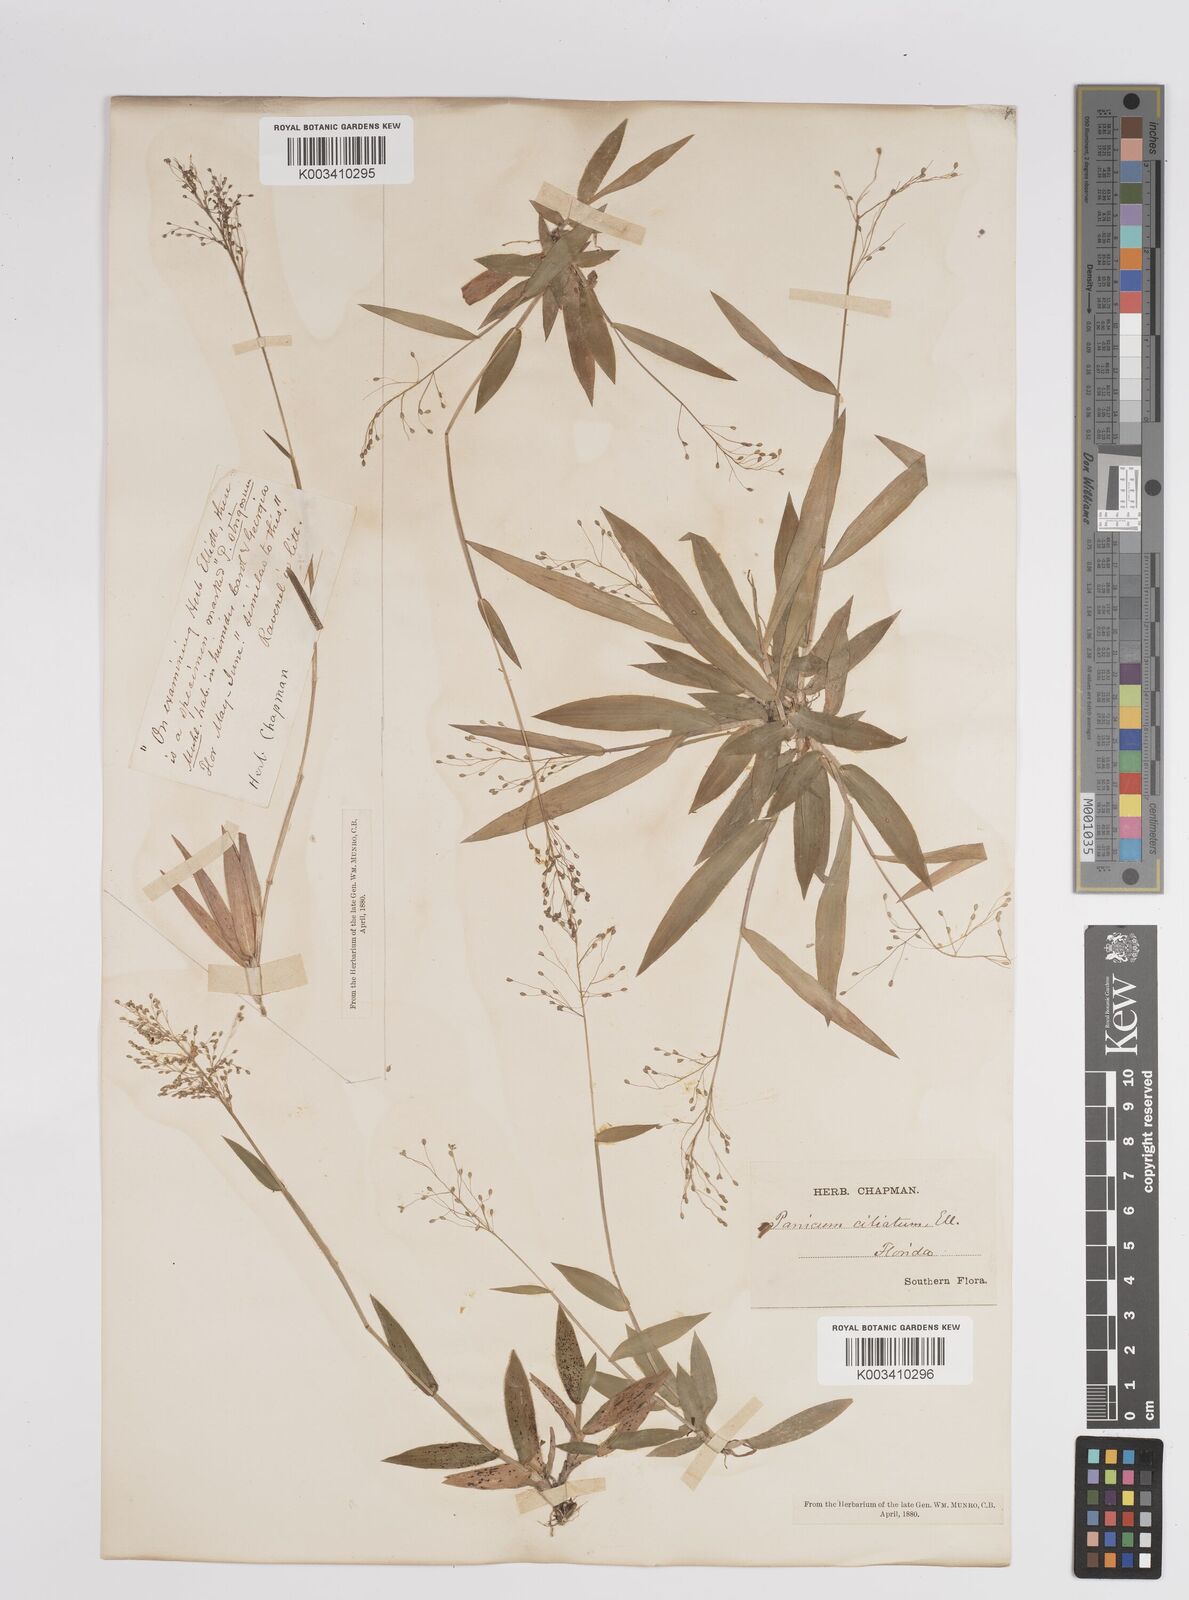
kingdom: Plantae
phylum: Tracheophyta
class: Liliopsida
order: Poales
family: Poaceae
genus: Dichanthelium
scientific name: Dichanthelium strigosum
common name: Cushion-tuft panic grass
